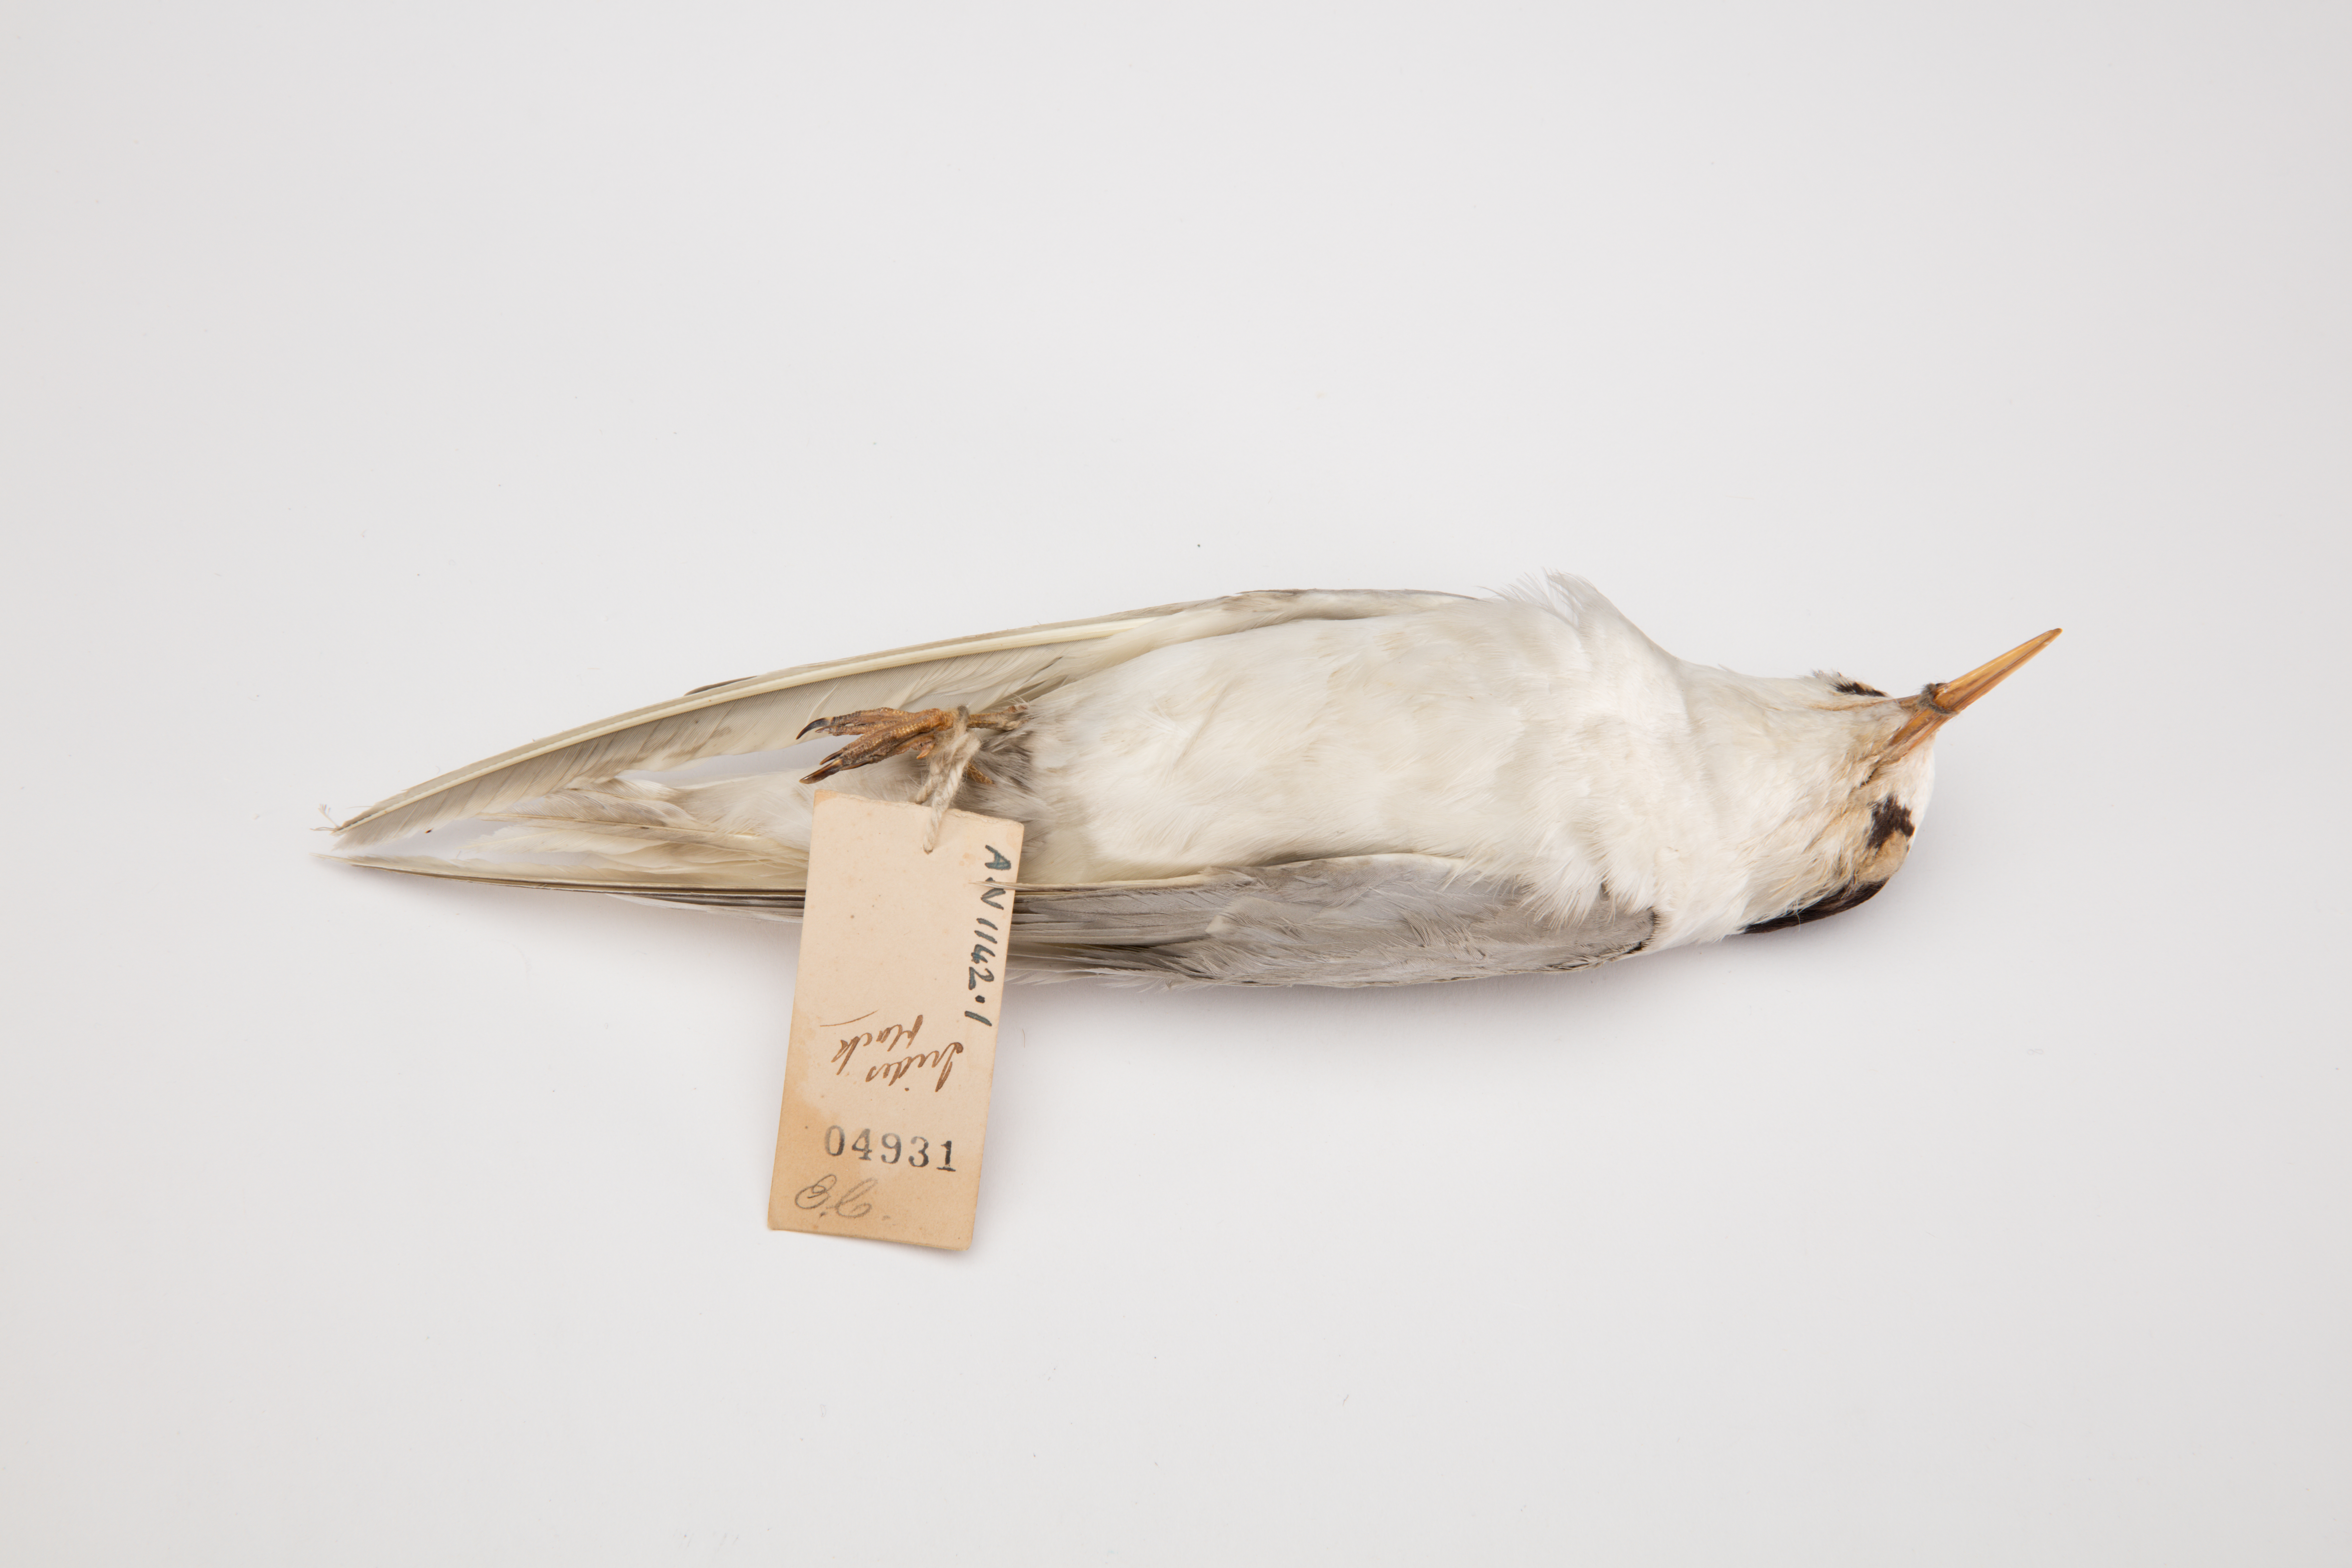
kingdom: Animalia
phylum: Chordata
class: Aves
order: Charadriiformes
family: Laridae
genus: Sternula
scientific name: Sternula nereis
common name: Fairy tern
